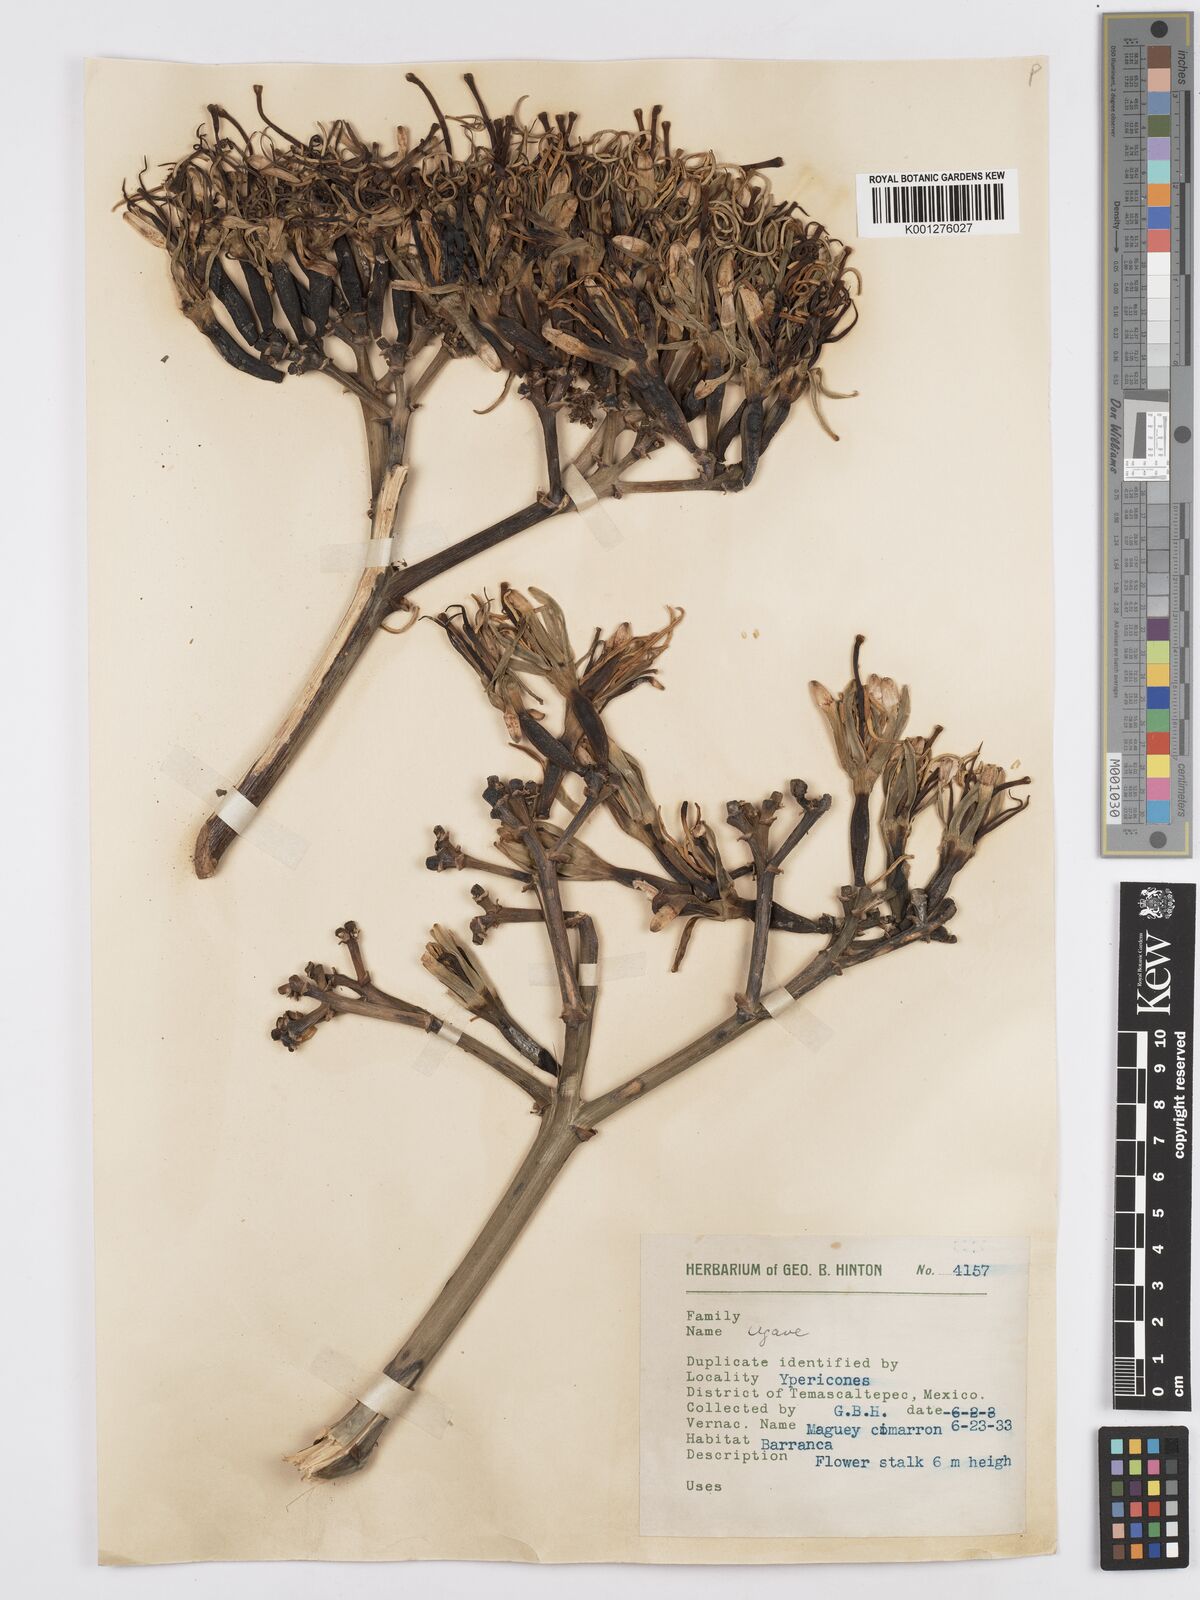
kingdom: Plantae
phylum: Tracheophyta
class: Liliopsida
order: Asparagales
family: Asparagaceae
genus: Agave
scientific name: Agave
